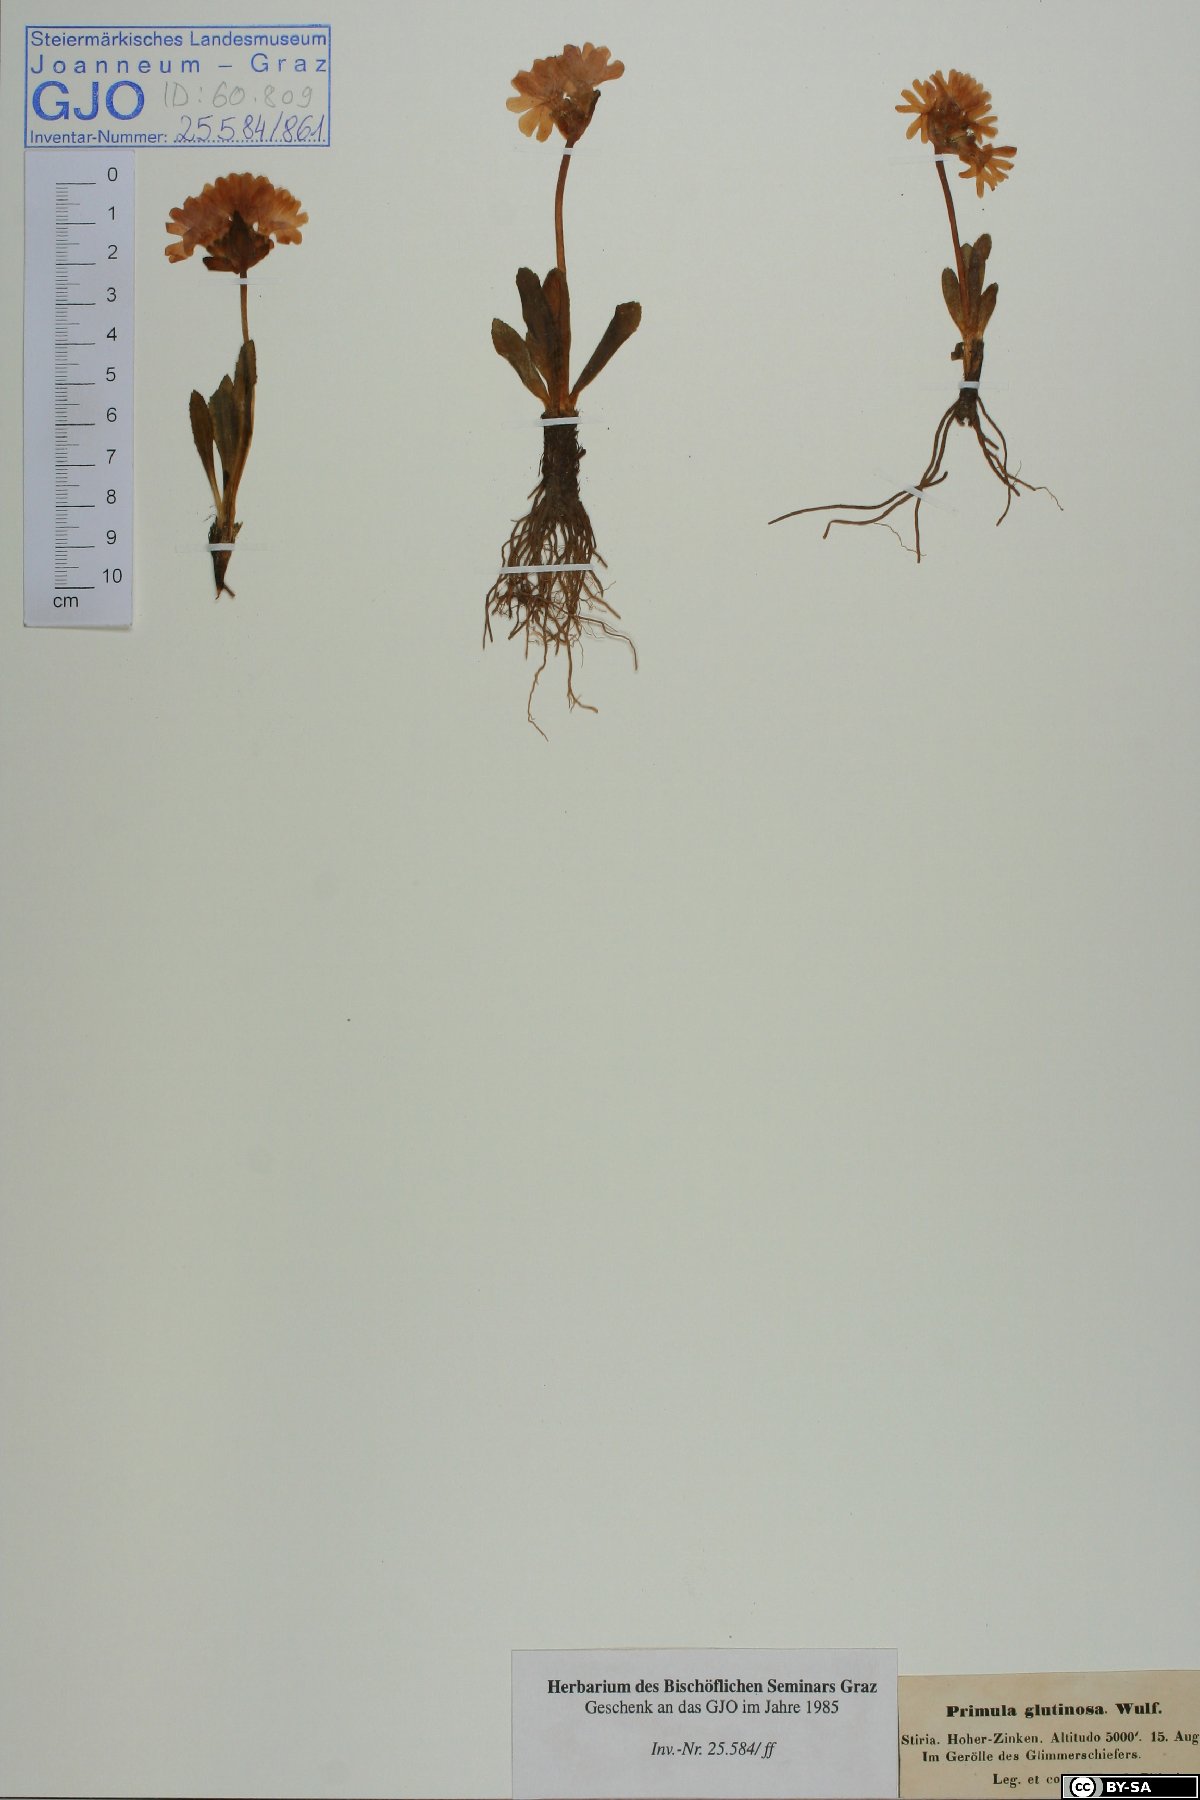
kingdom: Plantae
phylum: Tracheophyta
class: Magnoliopsida
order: Ericales
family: Primulaceae
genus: Primula
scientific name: Primula glutinosa
